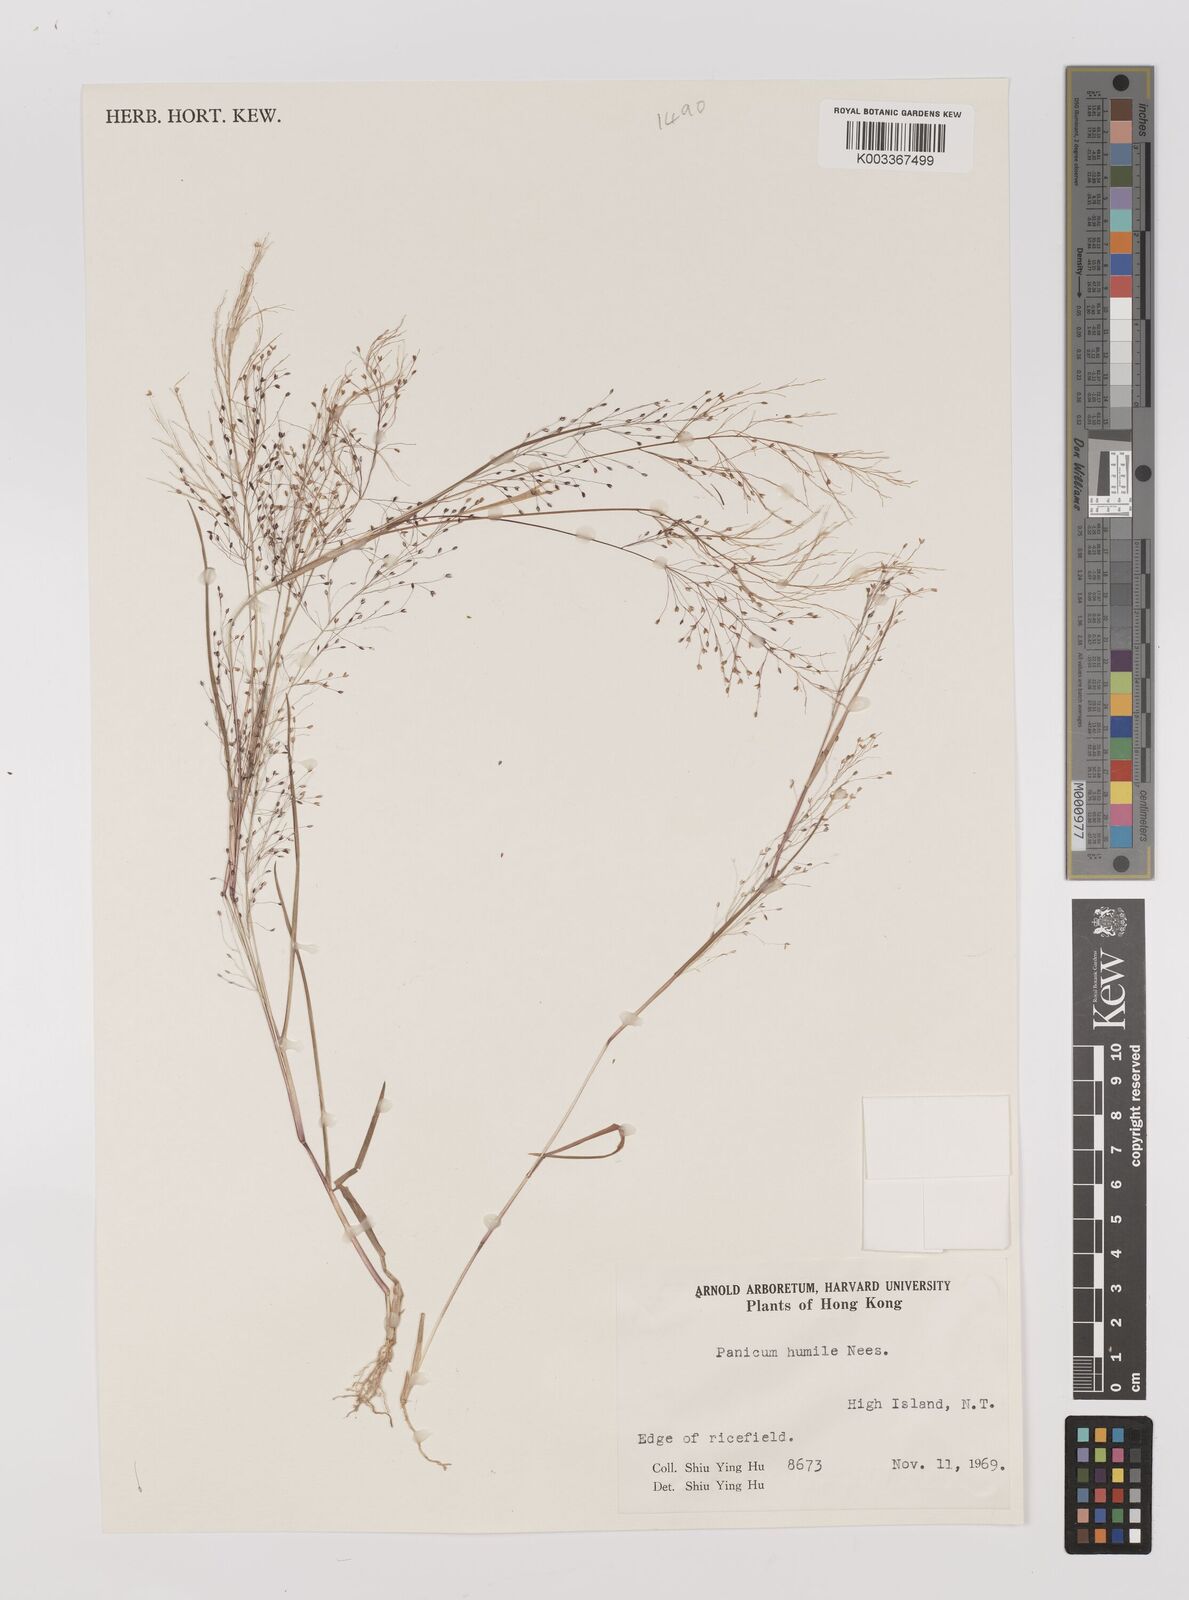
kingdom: Plantae
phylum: Tracheophyta
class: Liliopsida
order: Poales
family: Poaceae
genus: Panicum
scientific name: Panicum
